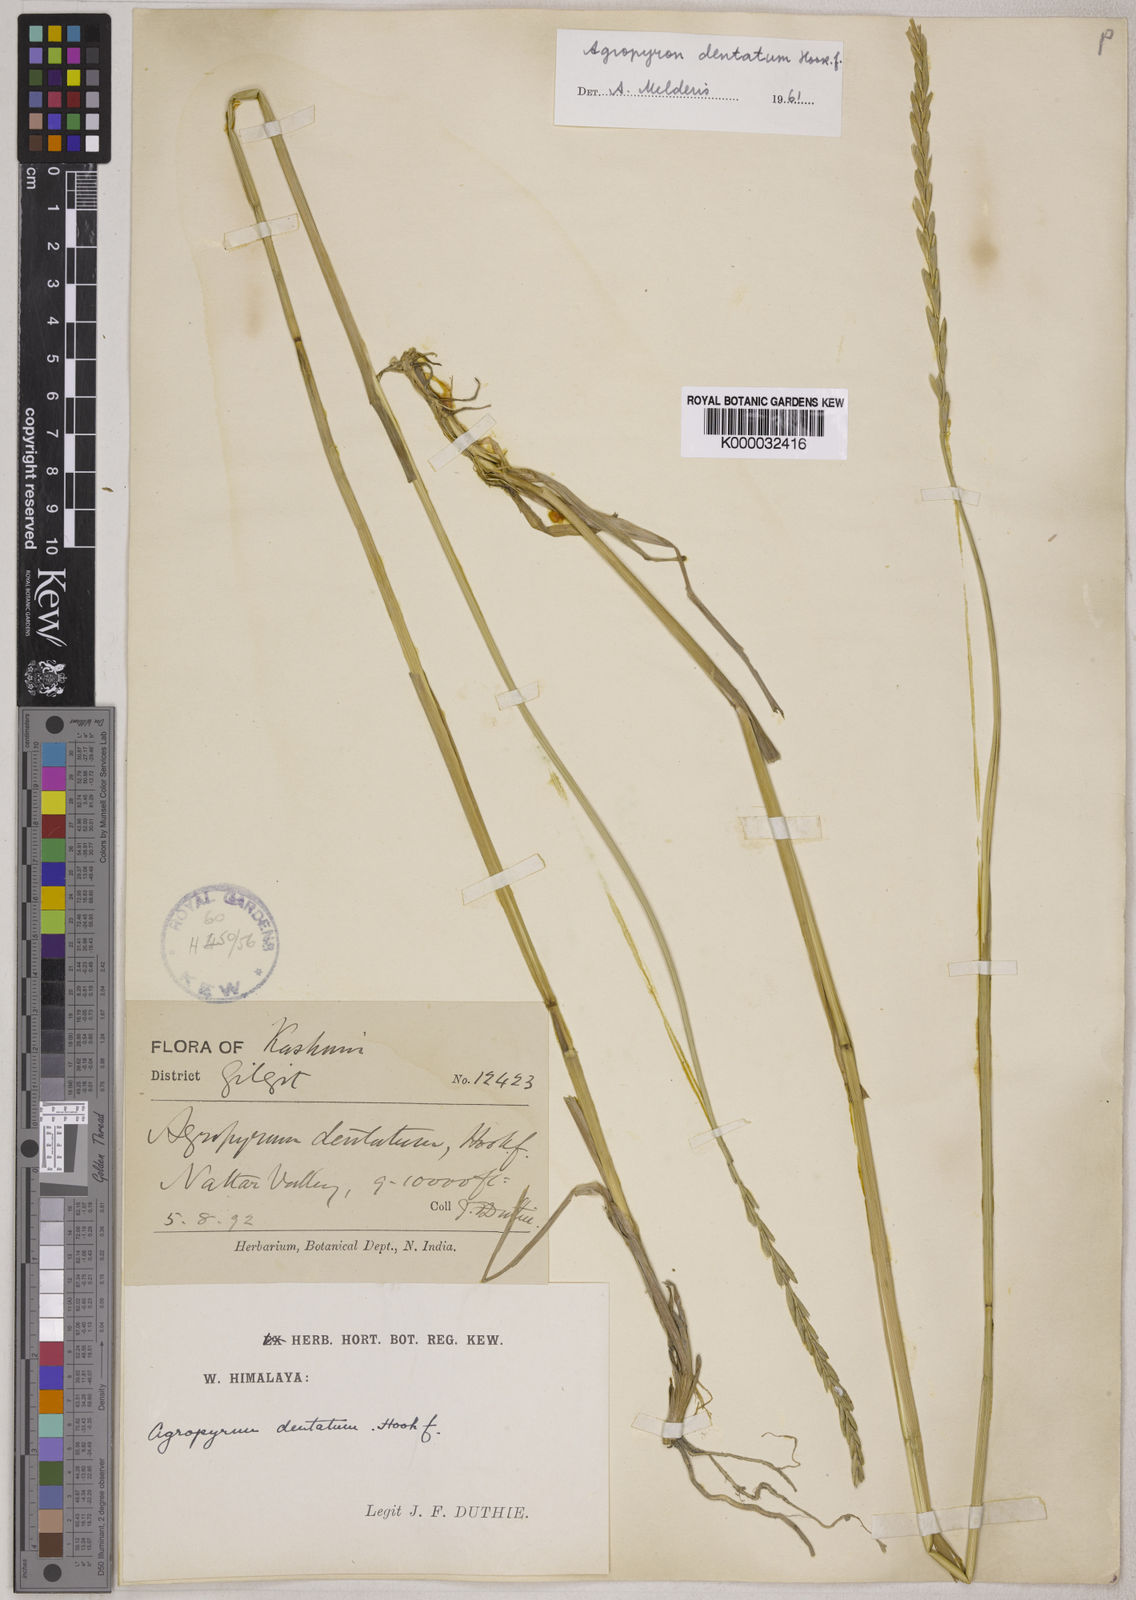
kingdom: Plantae
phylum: Tracheophyta
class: Liliopsida
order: Poales
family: Poaceae
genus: Elymus
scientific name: Elymus
